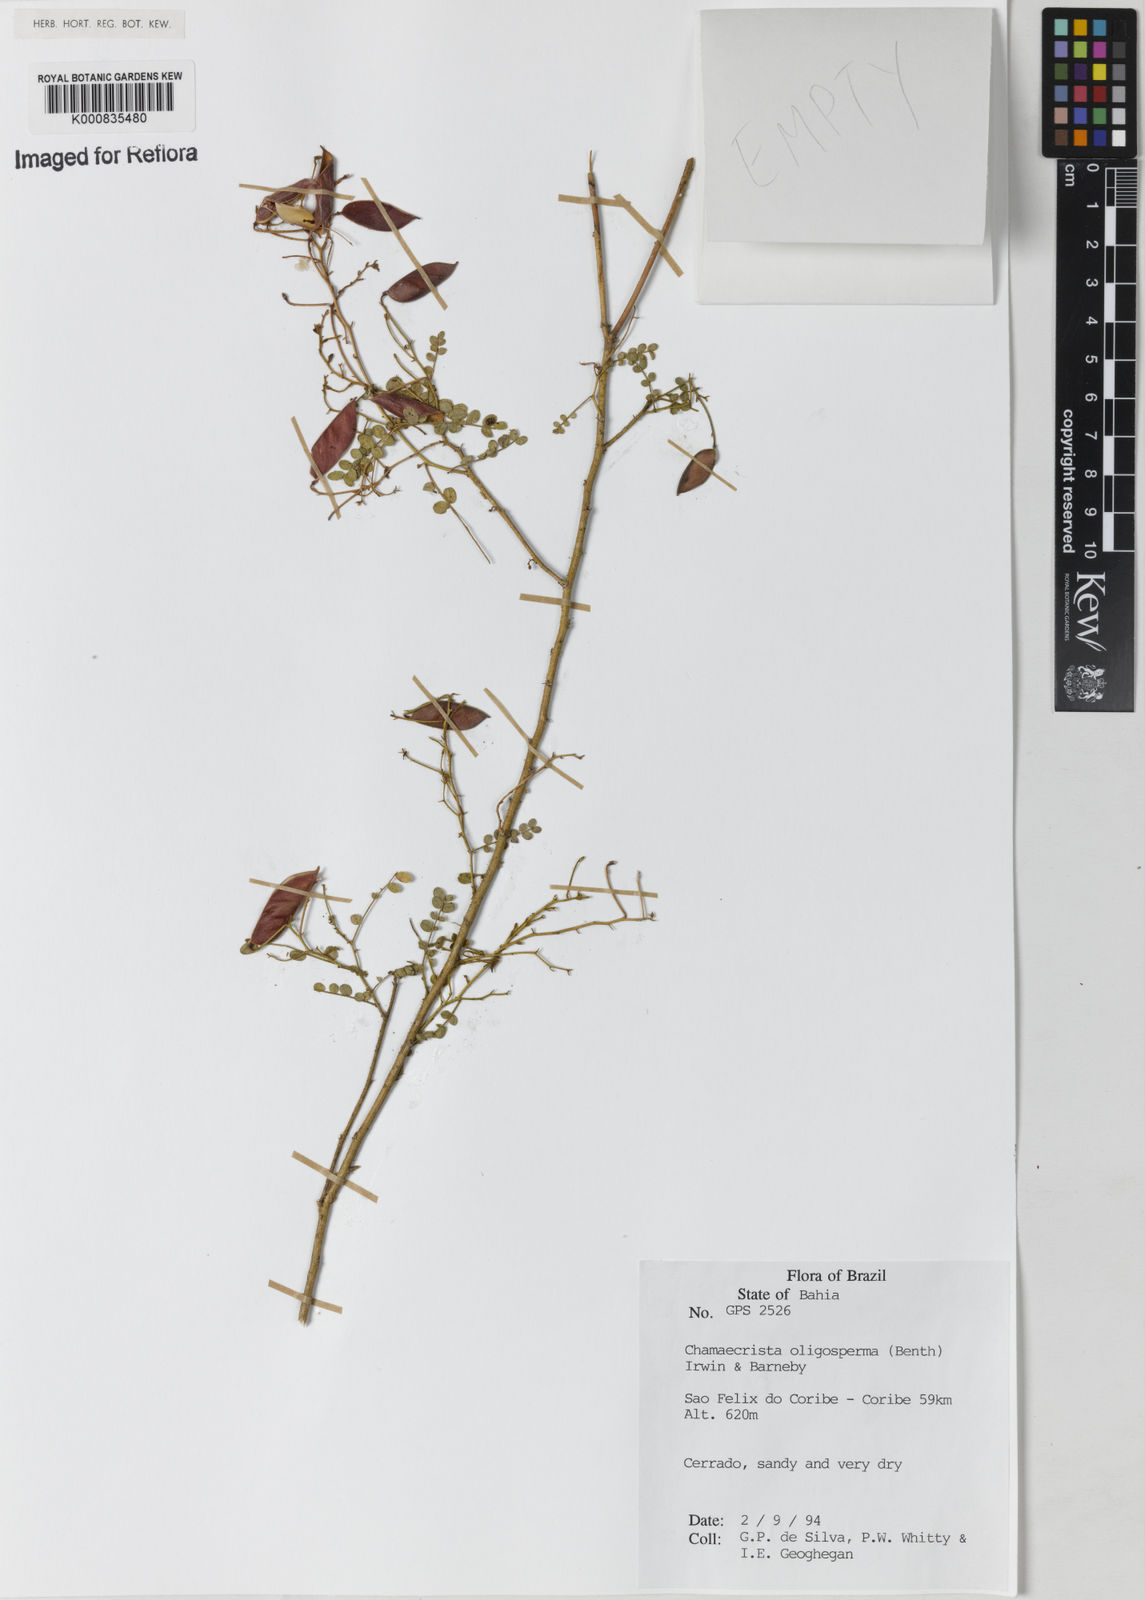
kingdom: Plantae
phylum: Tracheophyta
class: Magnoliopsida
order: Fabales
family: Fabaceae
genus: Chamaecrista
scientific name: Chamaecrista oligosperma
